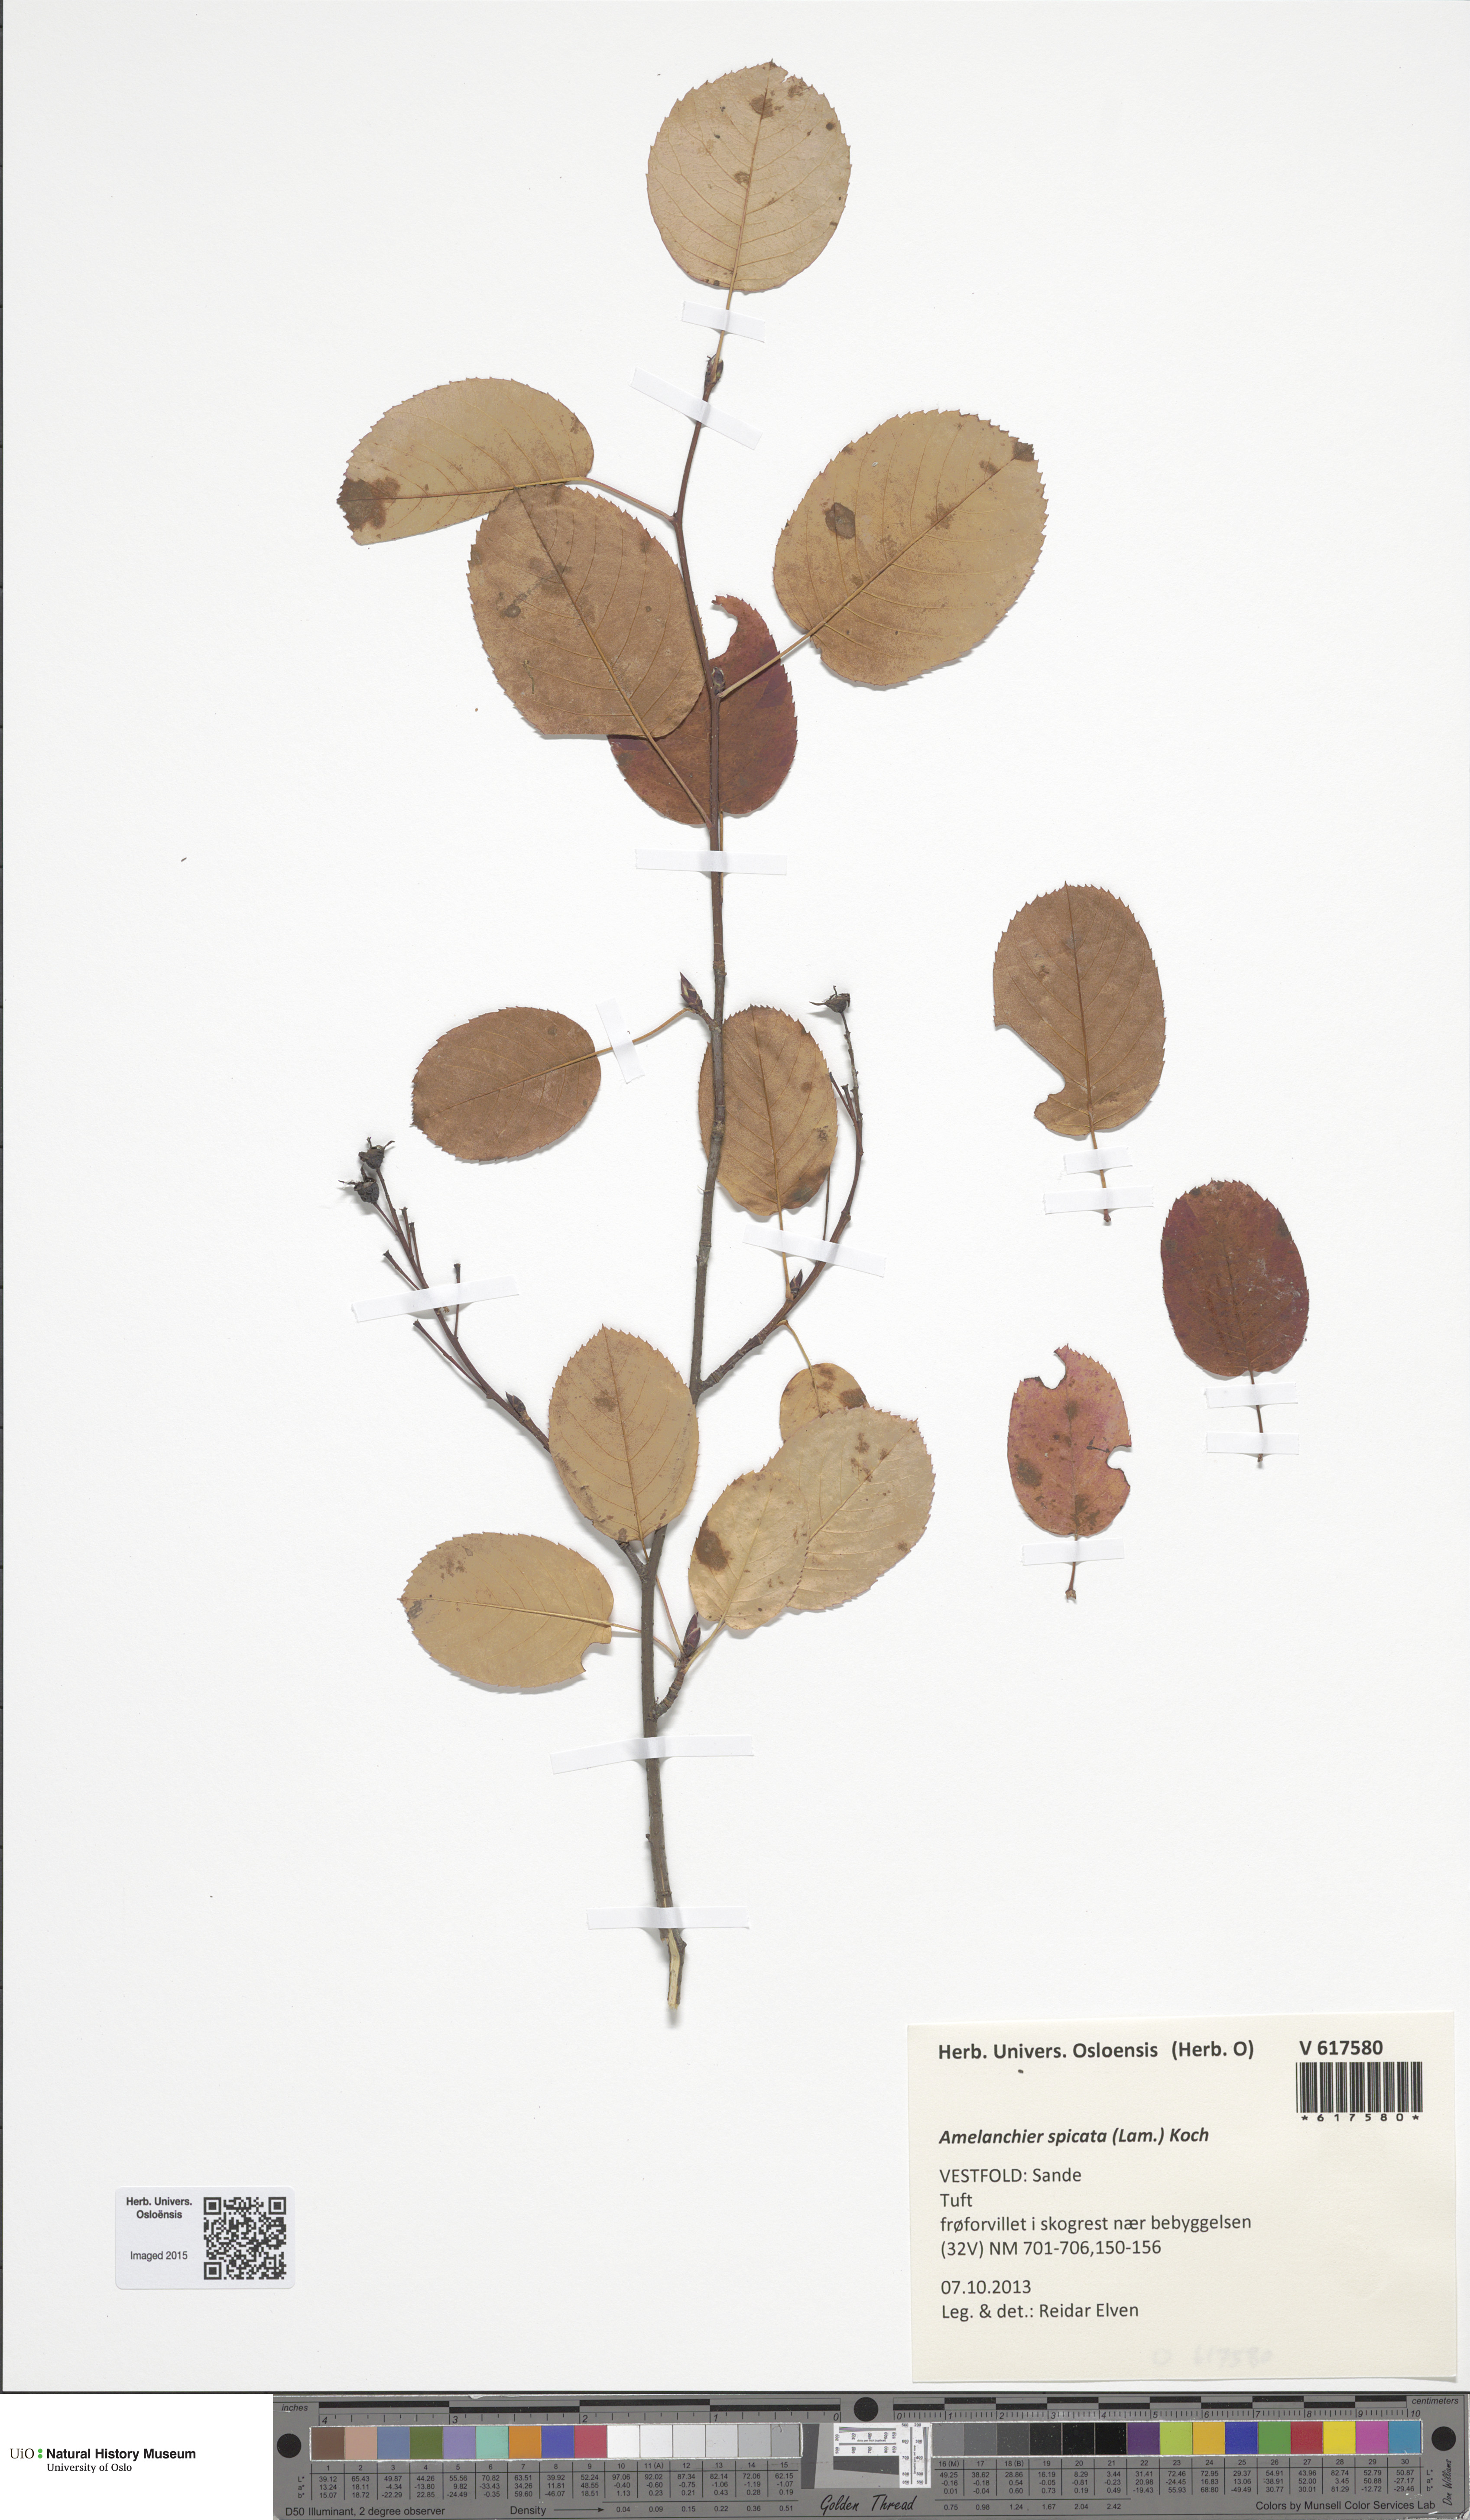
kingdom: Plantae
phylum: Tracheophyta
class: Magnoliopsida
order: Rosales
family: Rosaceae
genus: Amelanchier
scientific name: Amelanchier humilis
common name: Low juneberry
